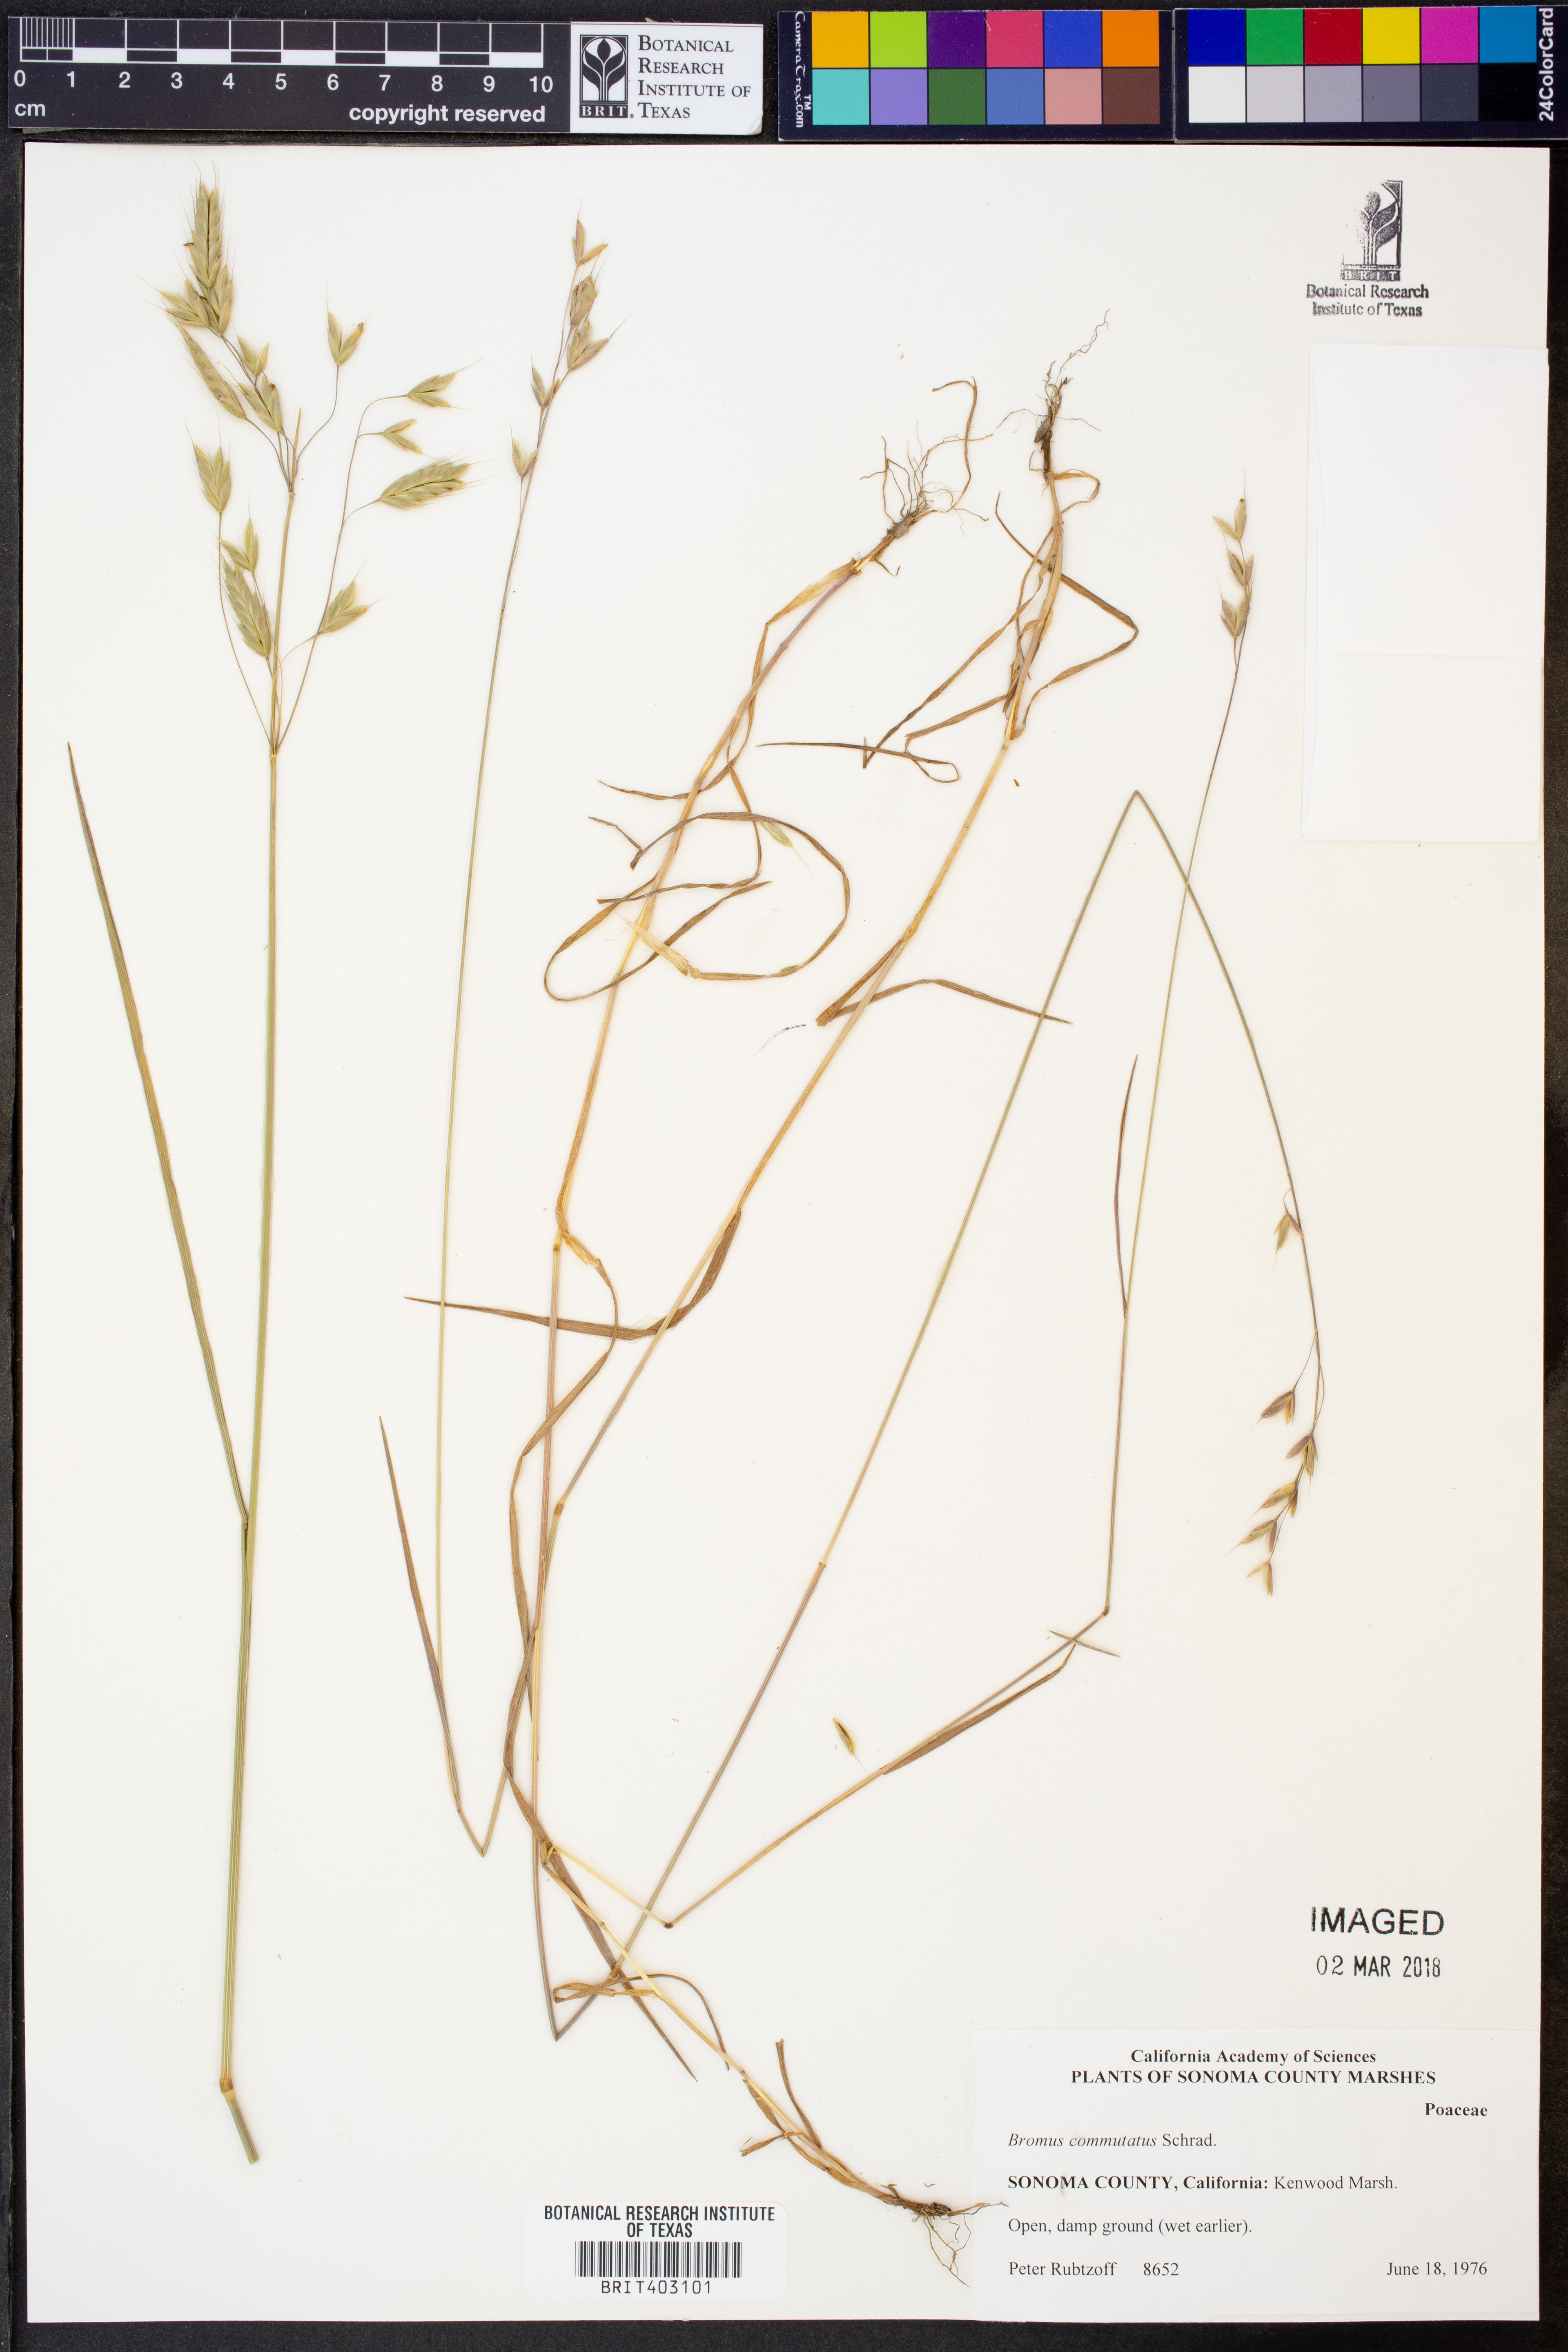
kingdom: Plantae
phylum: Tracheophyta
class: Liliopsida
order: Poales
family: Poaceae
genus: Bromus
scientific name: Bromus commutatus
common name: Meadow brome
